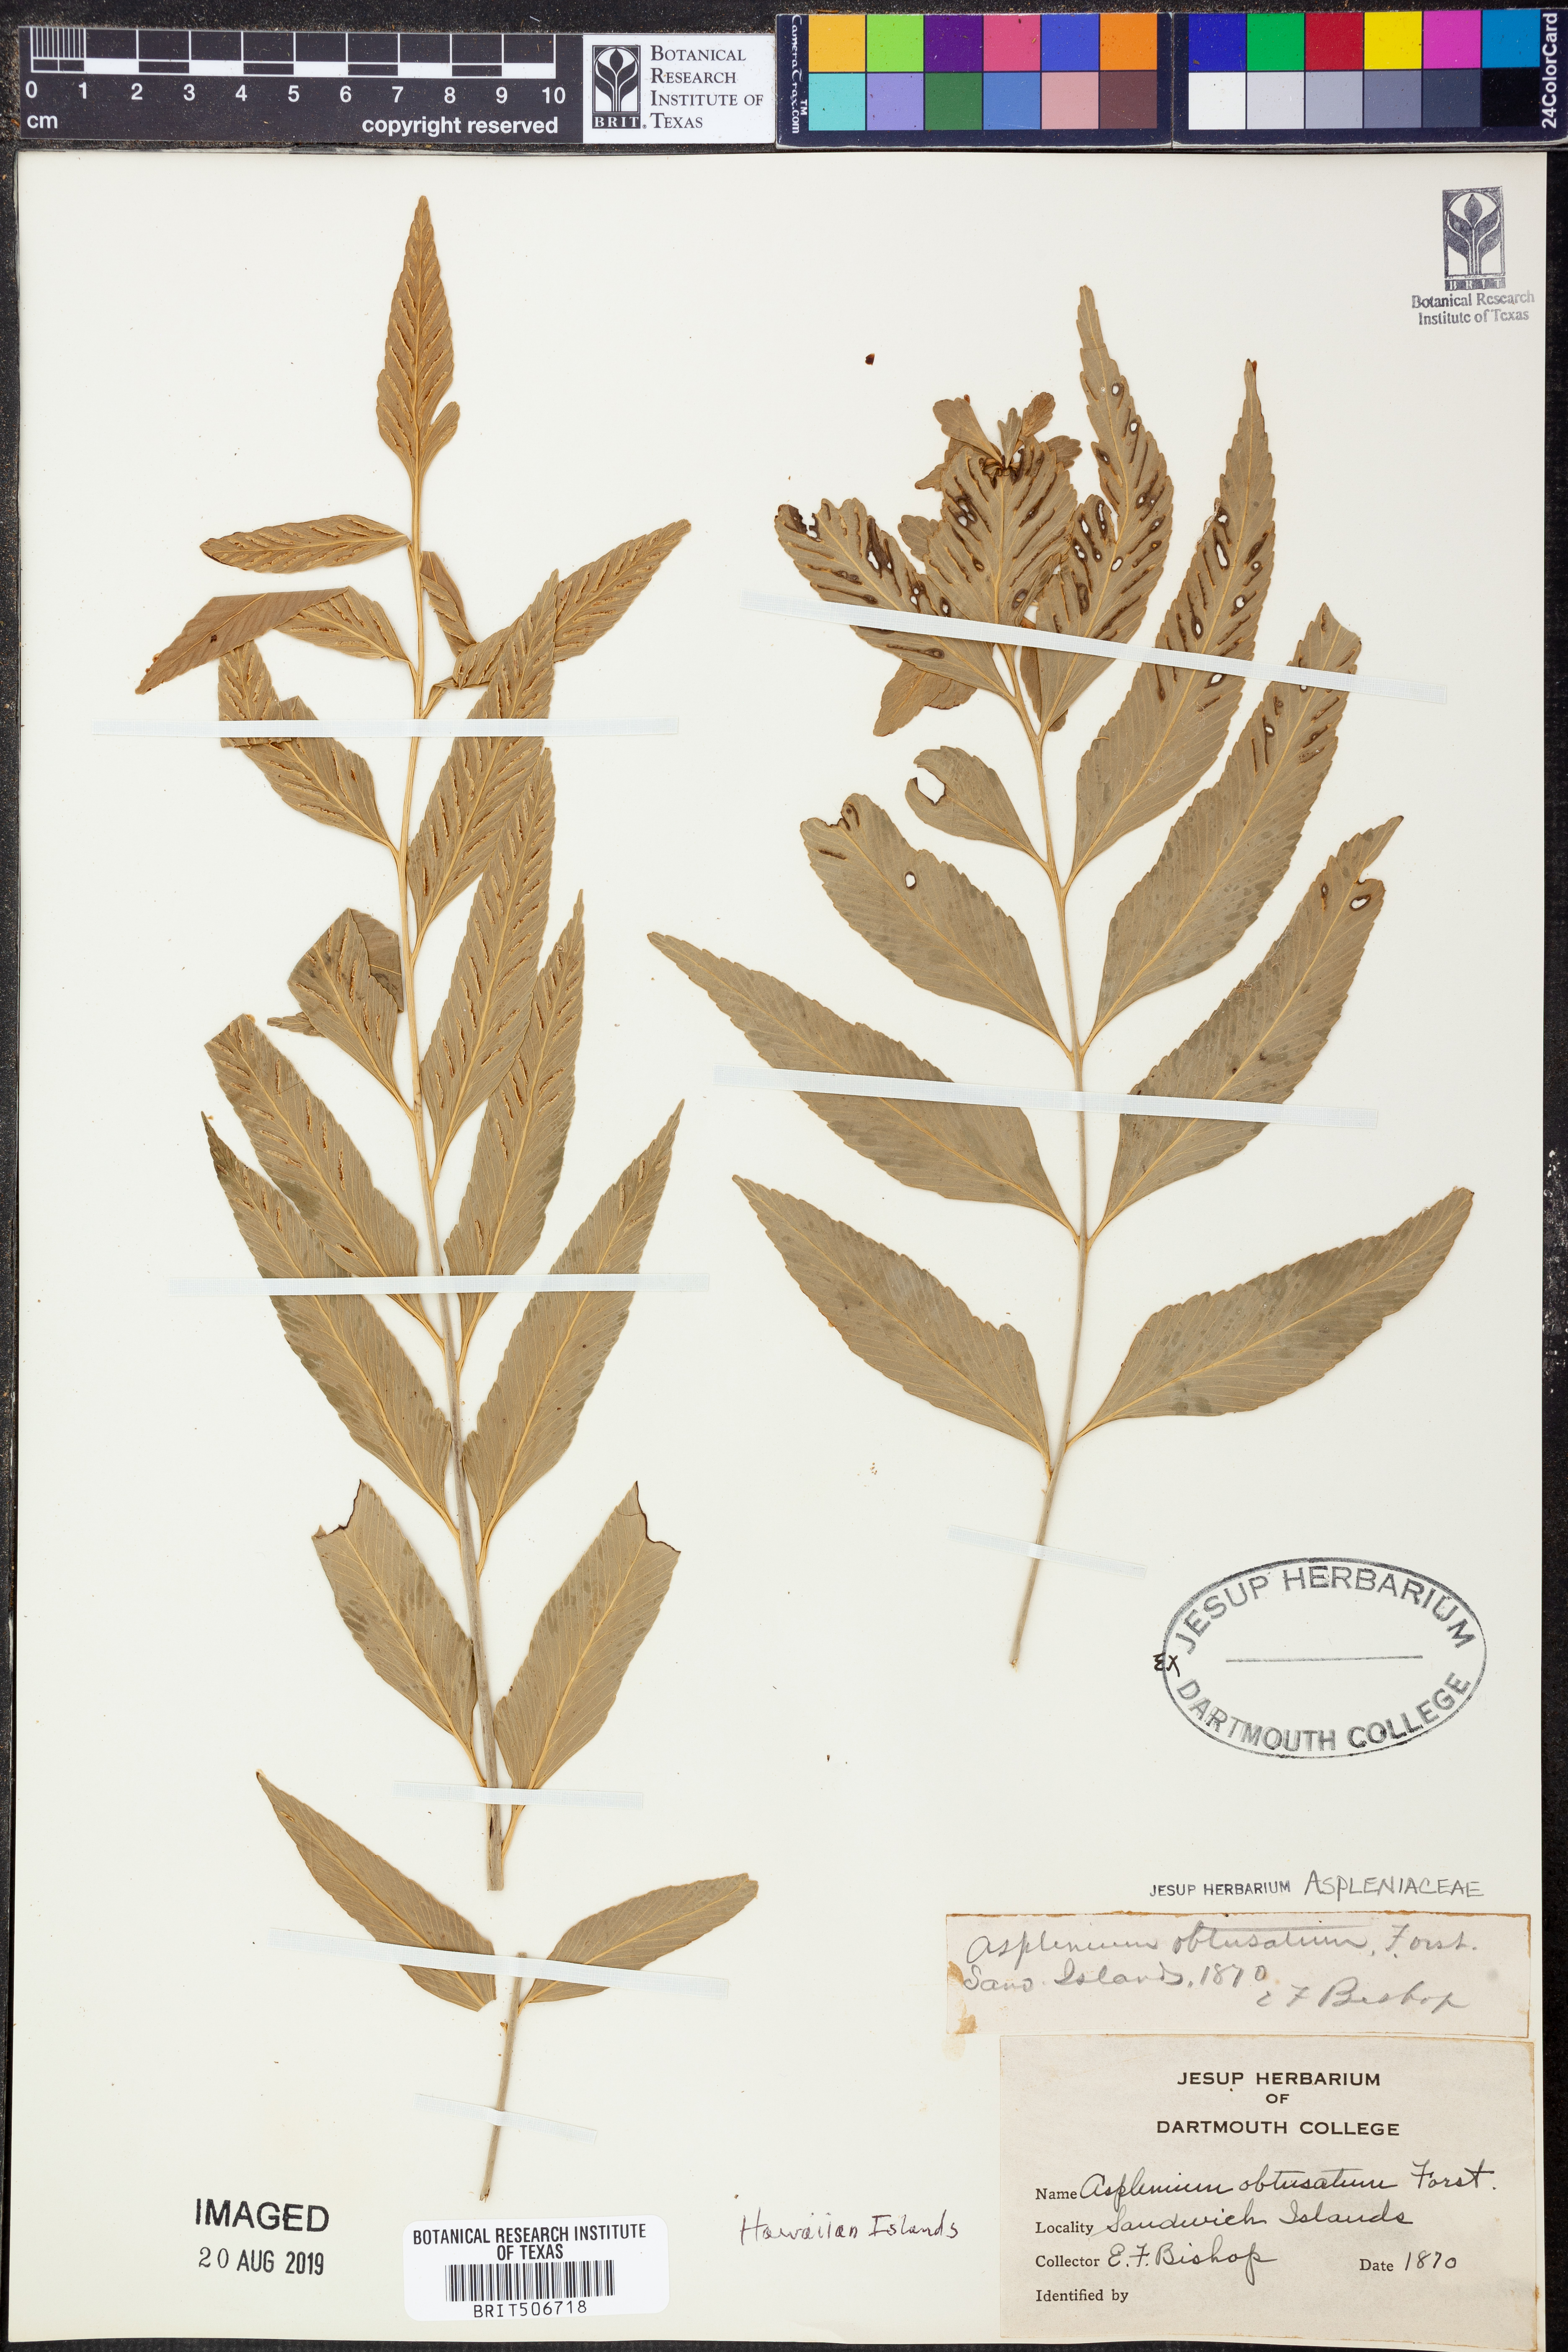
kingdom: Plantae
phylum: Tracheophyta
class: Polypodiopsida
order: Polypodiales
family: Aspleniaceae
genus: Asplenium
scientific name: Asplenium obtusatum
